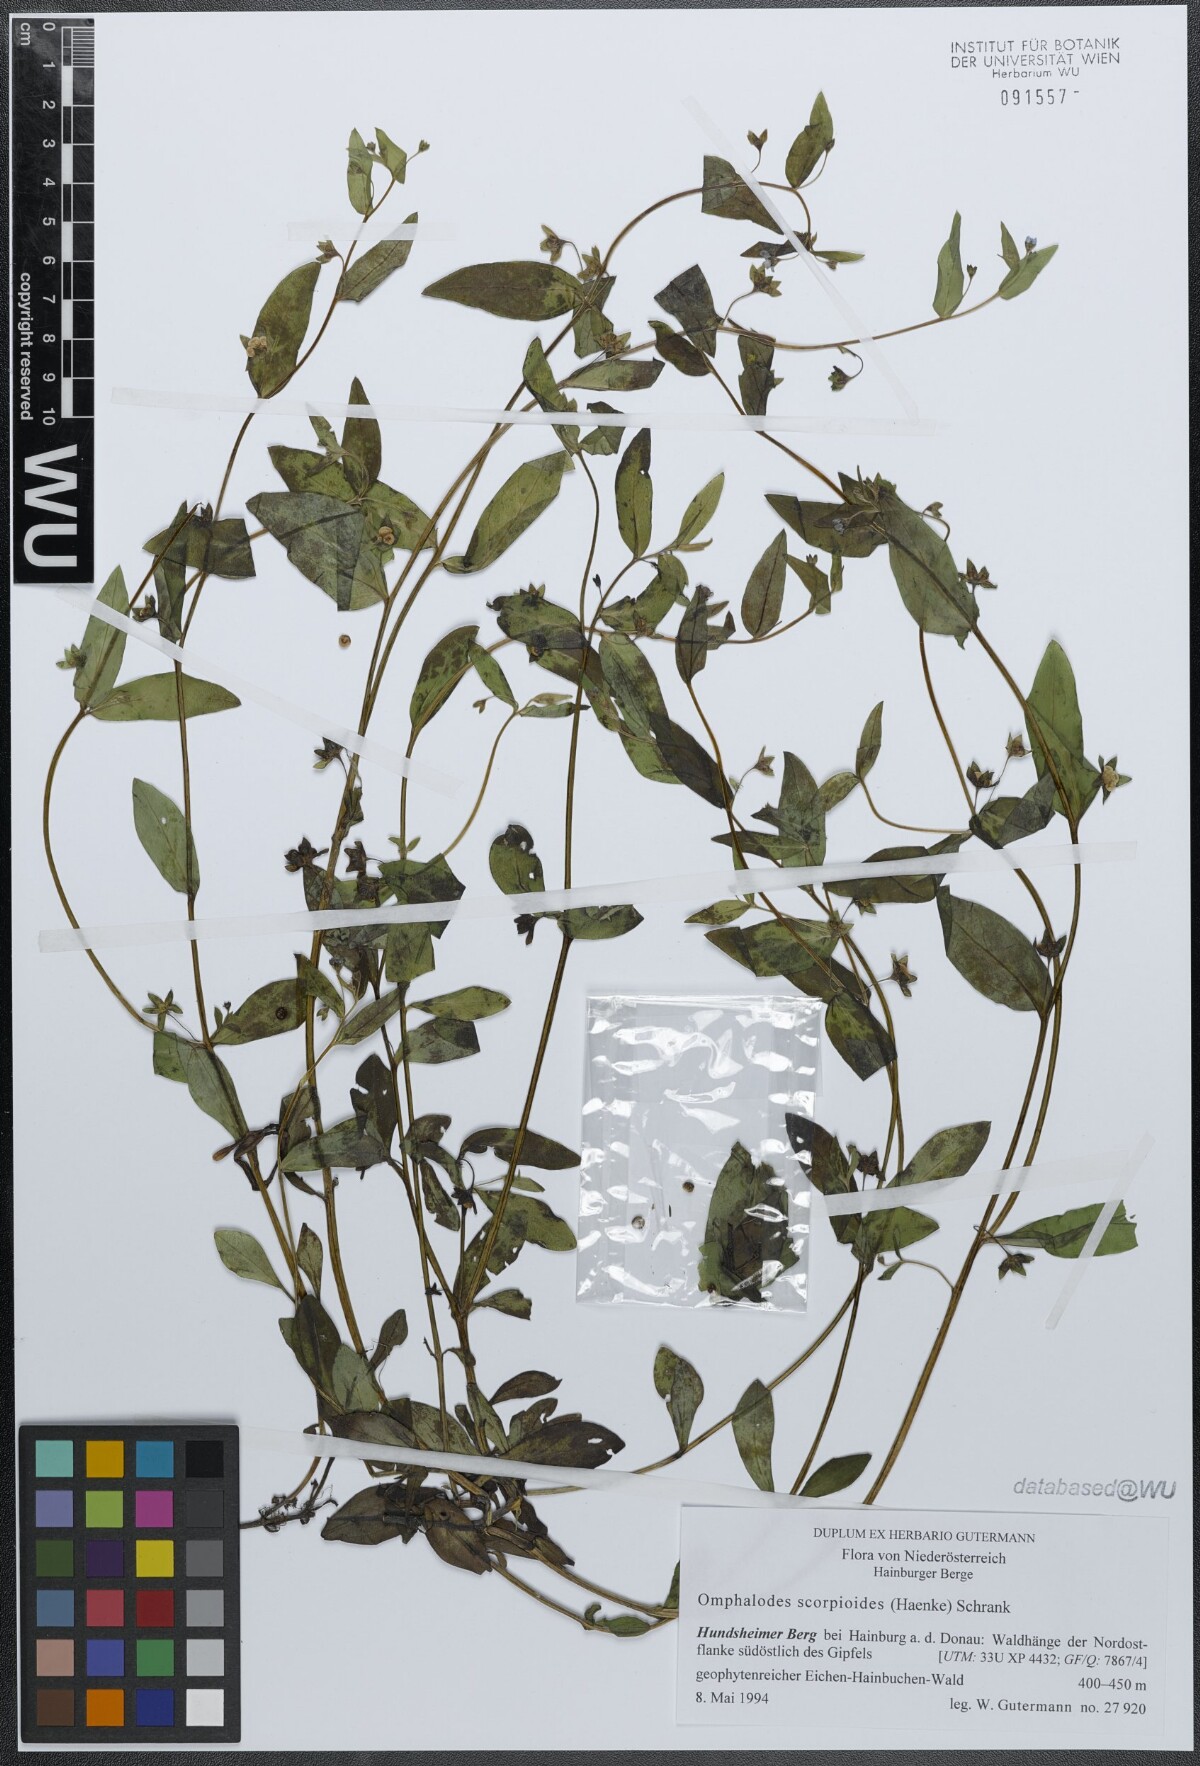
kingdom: Plantae
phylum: Tracheophyta
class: Magnoliopsida
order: Boraginales
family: Boraginaceae
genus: Memoremea
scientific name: Memoremea scorpioides
